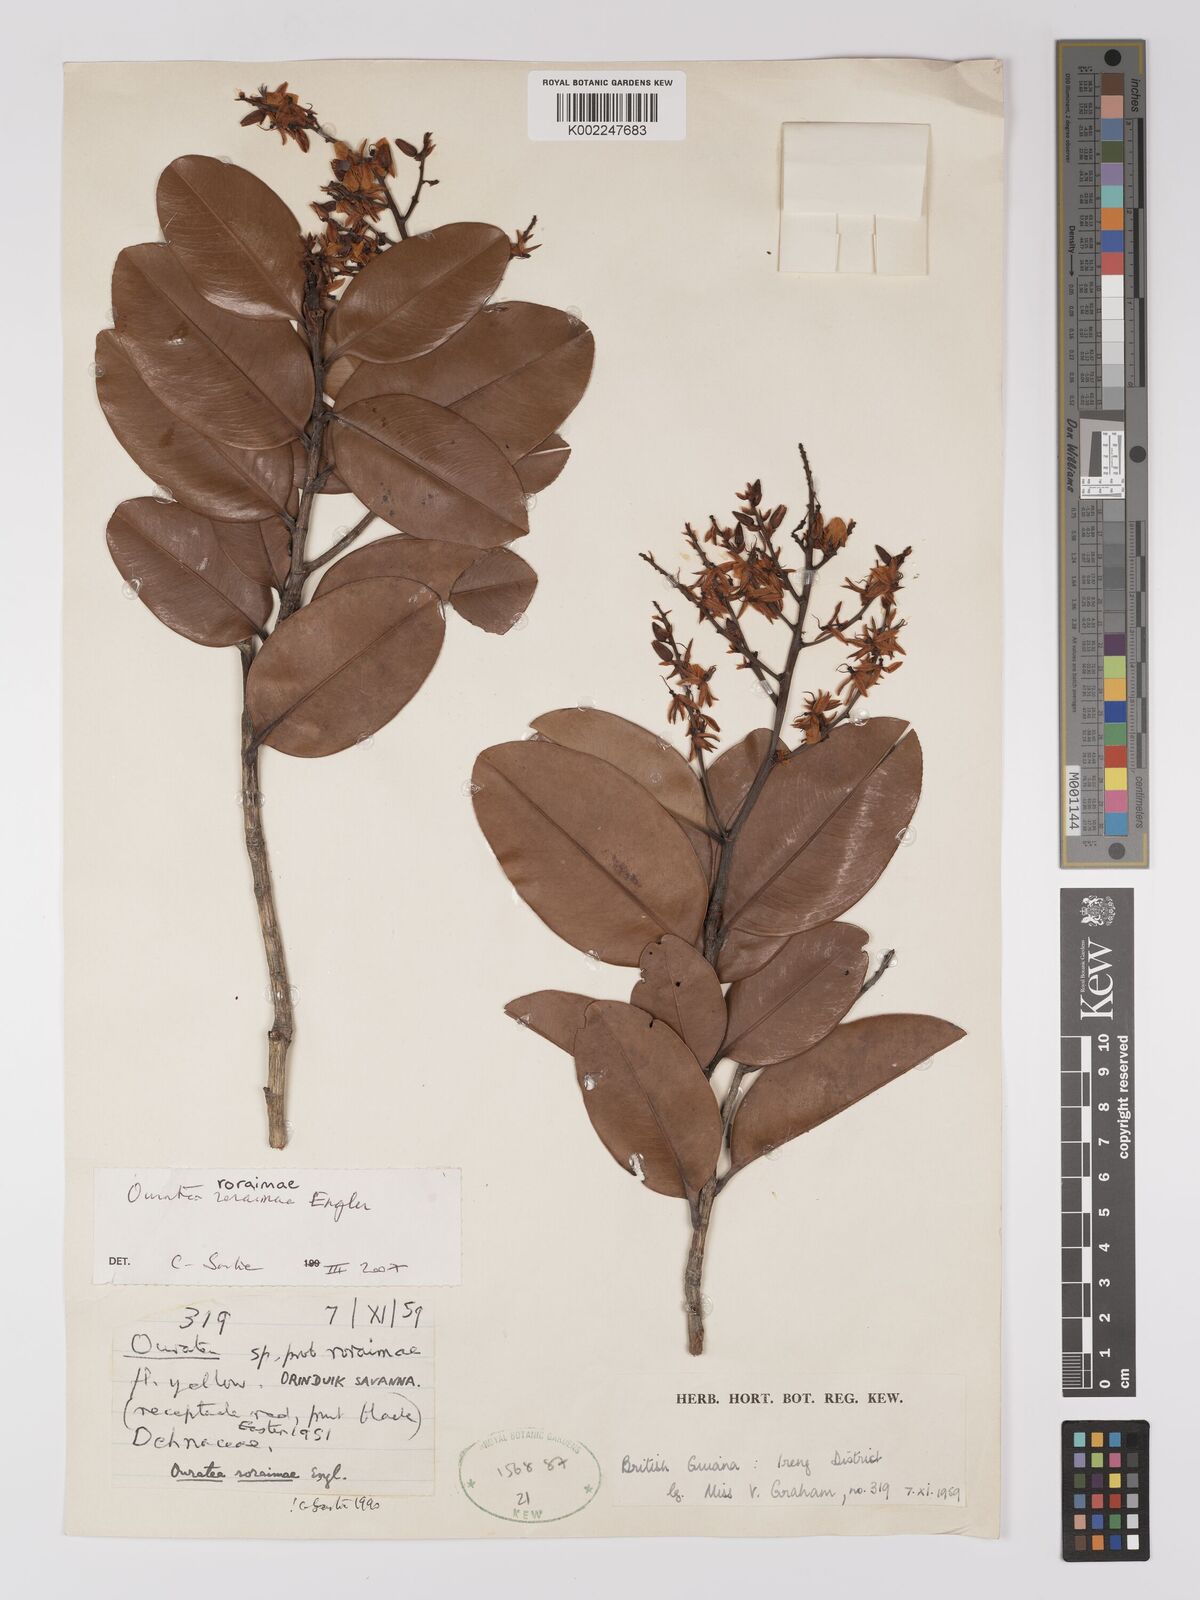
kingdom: Plantae
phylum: Tracheophyta
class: Magnoliopsida
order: Malpighiales
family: Ochnaceae
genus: Ouratea
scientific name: Ouratea roraimae
